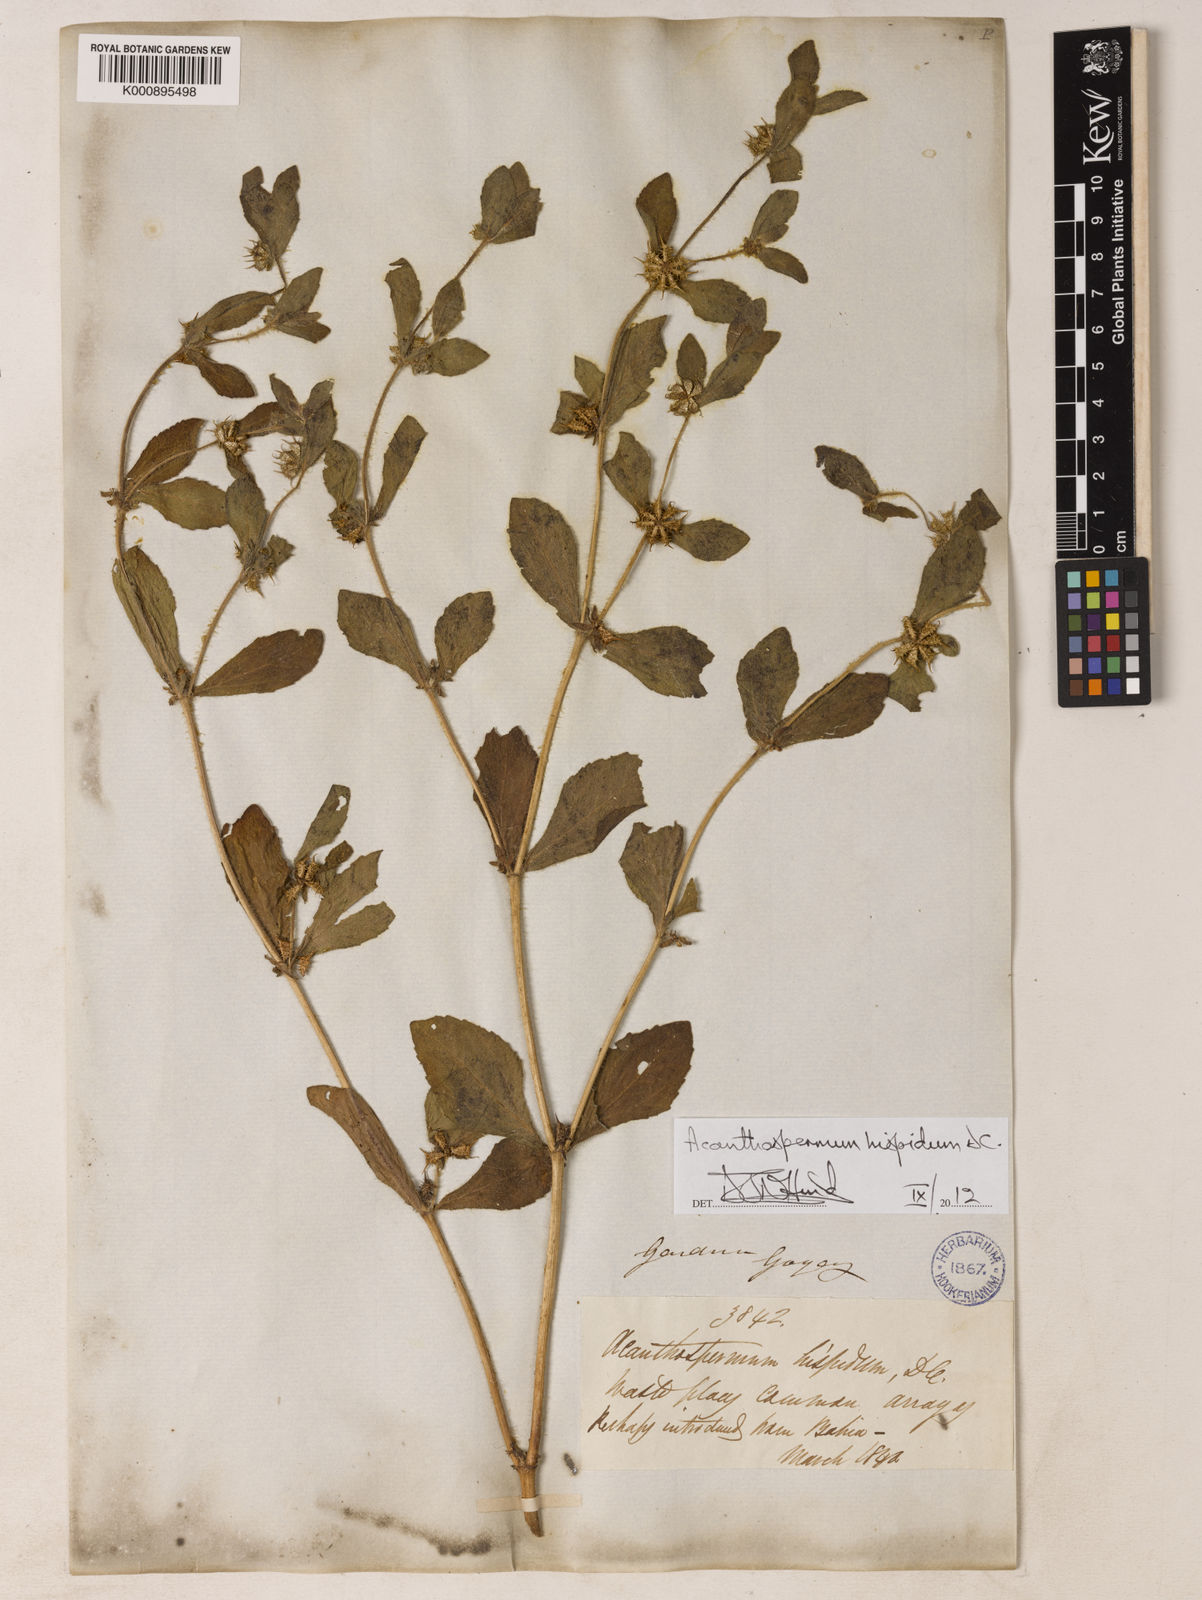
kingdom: Plantae
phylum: Tracheophyta
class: Magnoliopsida
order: Asterales
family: Asteraceae
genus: Acanthospermum
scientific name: Acanthospermum hispidum
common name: Hispid starbur
